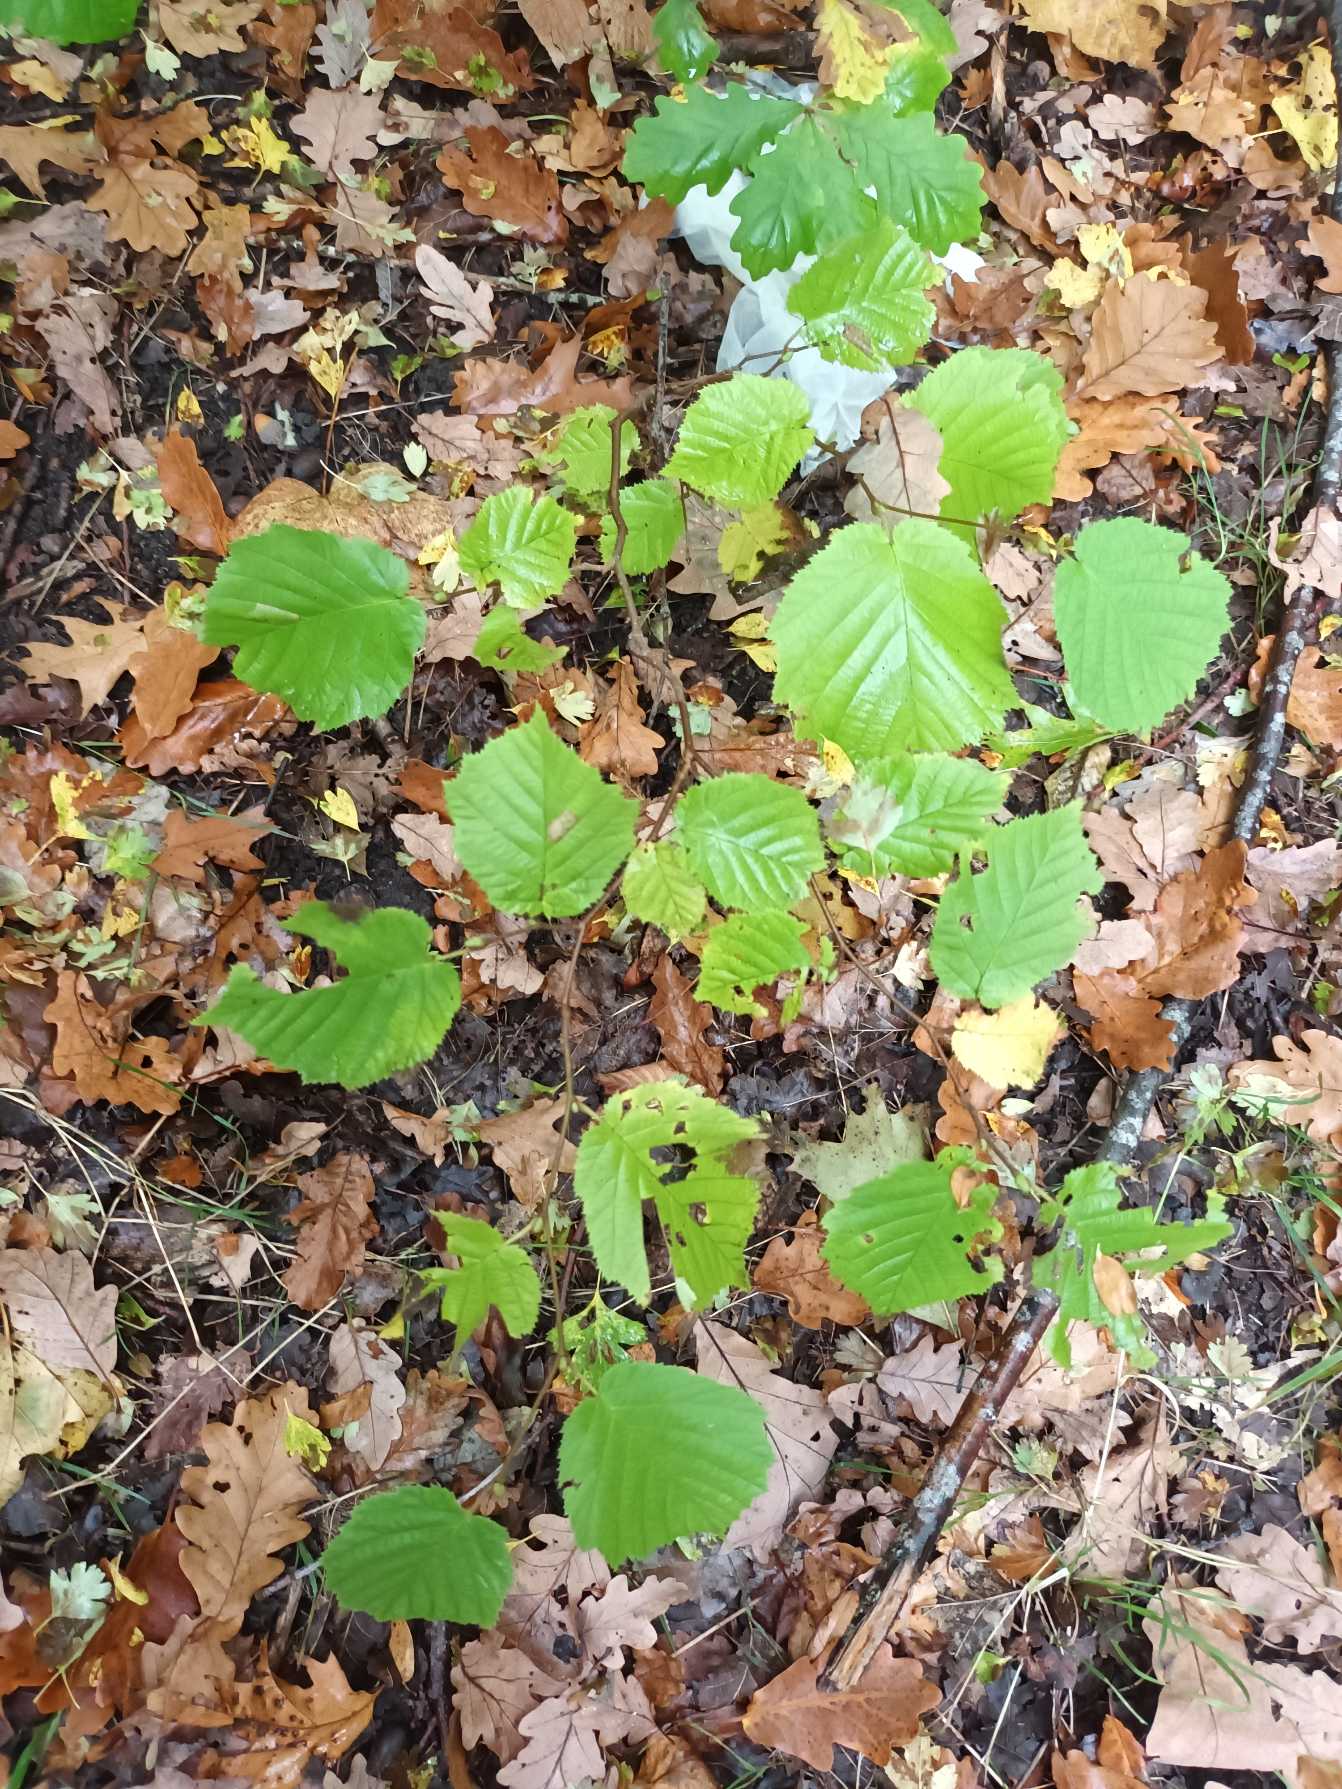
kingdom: Plantae
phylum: Tracheophyta
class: Magnoliopsida
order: Fagales
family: Betulaceae
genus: Corylus
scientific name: Corylus avellana
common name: Hassel
